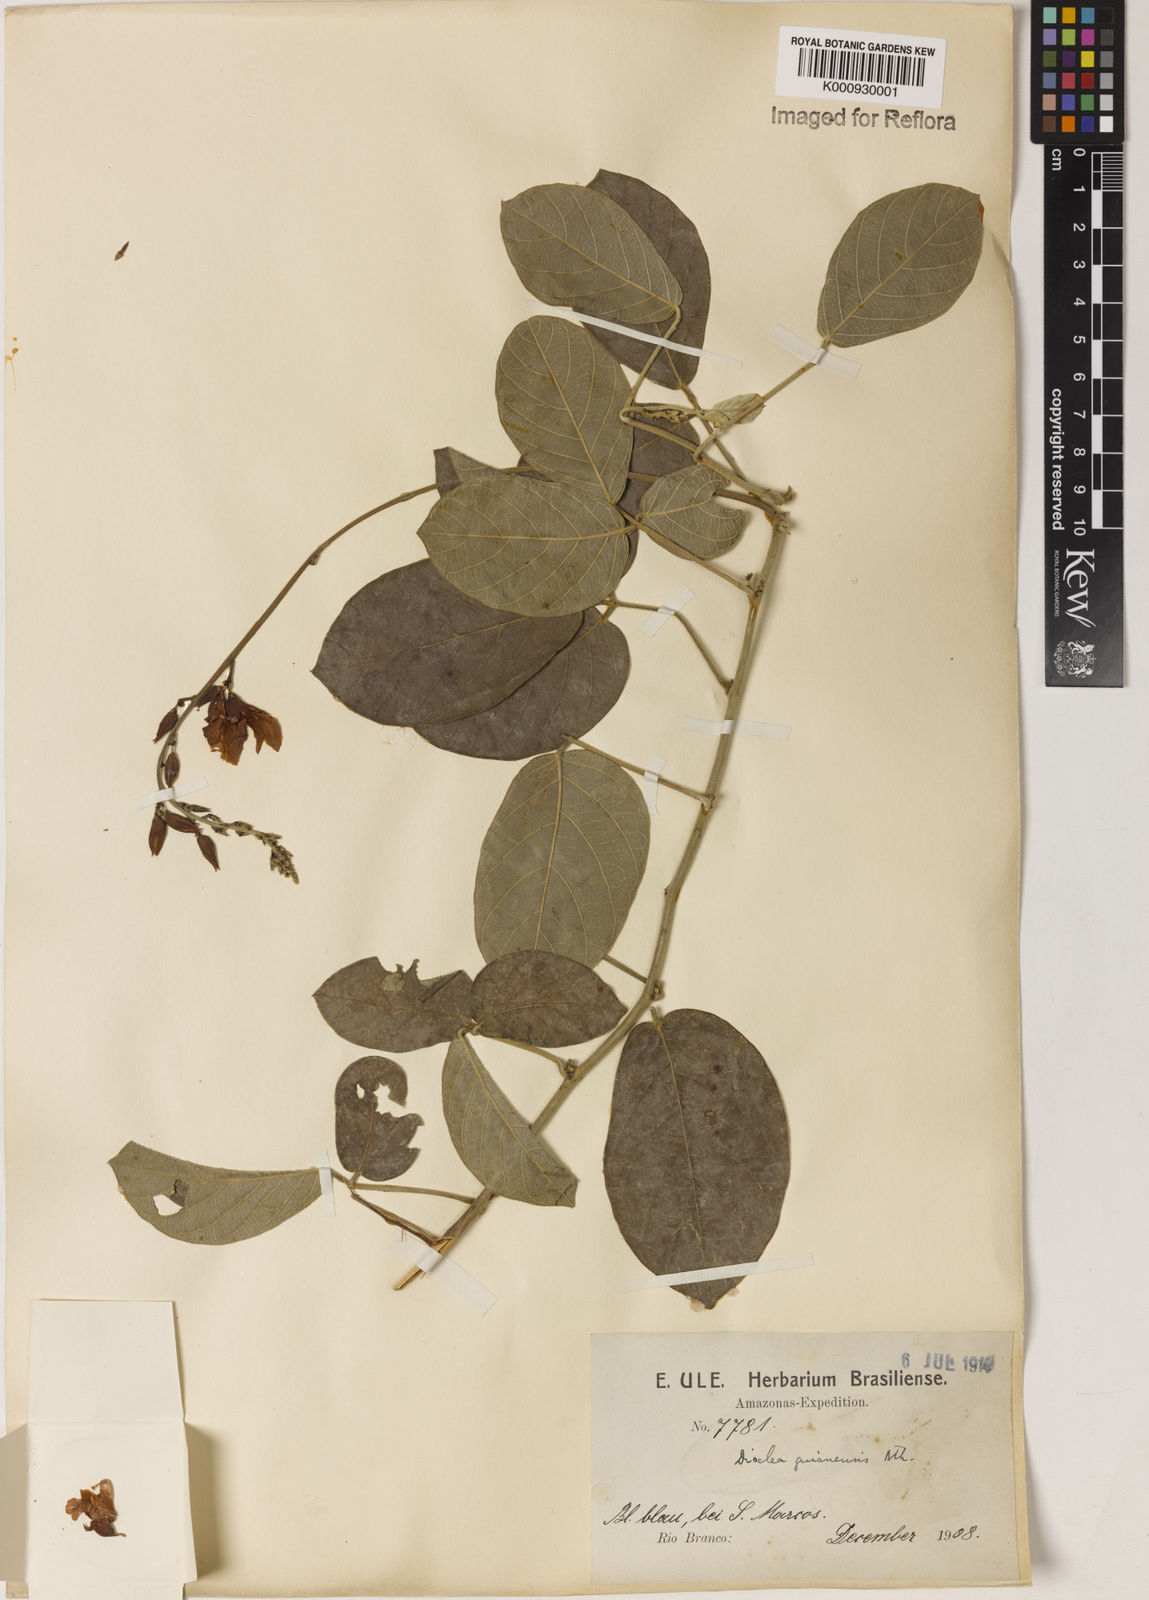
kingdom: Plantae
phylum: Tracheophyta
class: Magnoliopsida
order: Fabales
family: Fabaceae
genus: Calliandra
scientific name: Calliandra calycina
